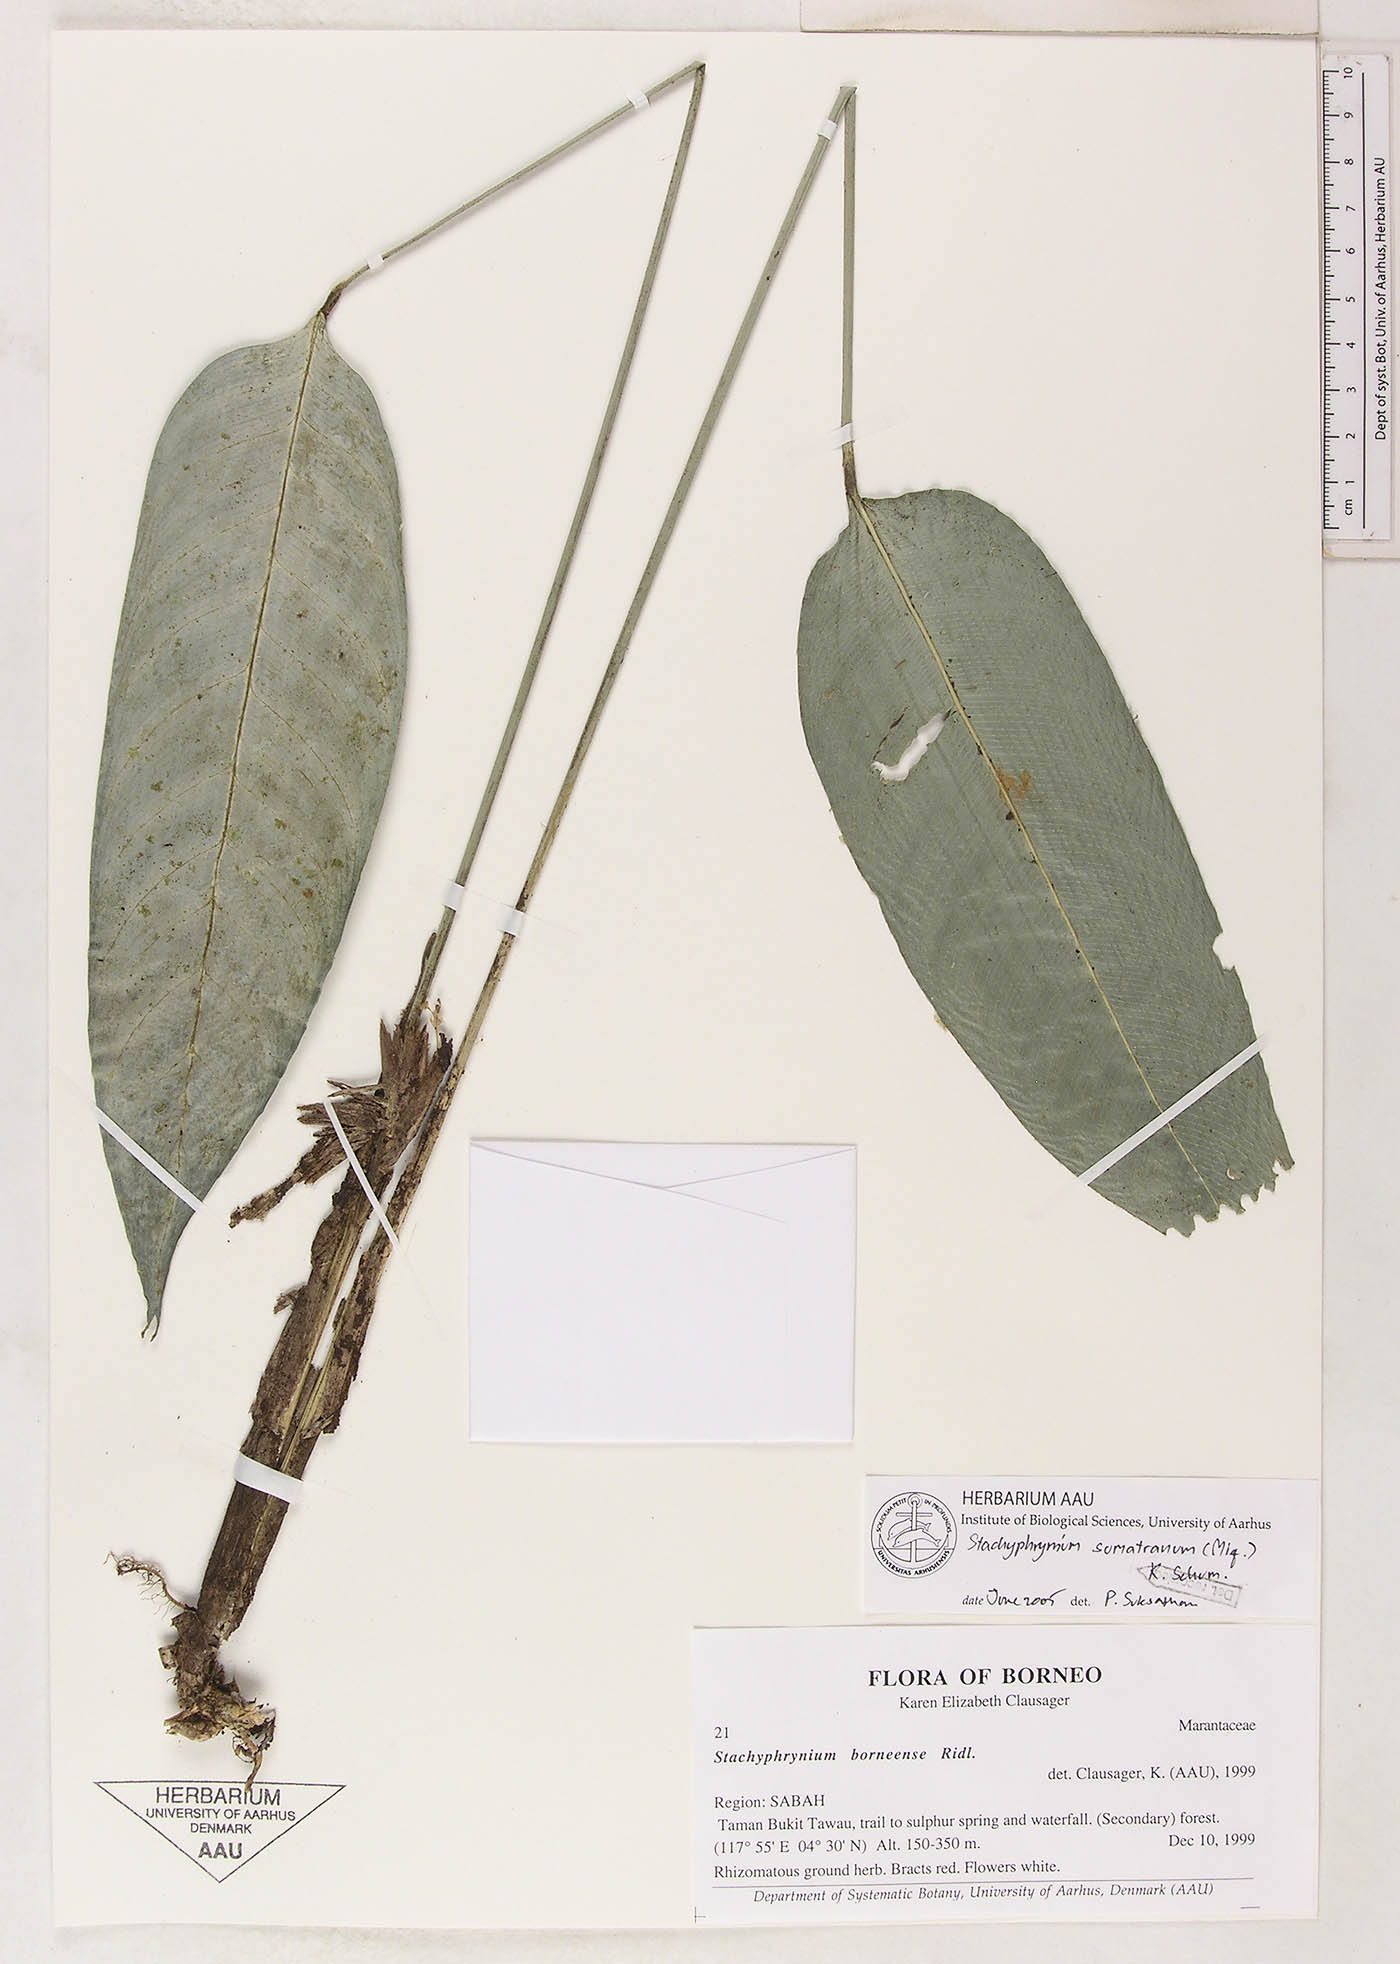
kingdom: Plantae
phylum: Tracheophyta
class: Liliopsida
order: Zingiberales
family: Marantaceae
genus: Stachyphrynium
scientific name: Stachyphrynium sumatranum
